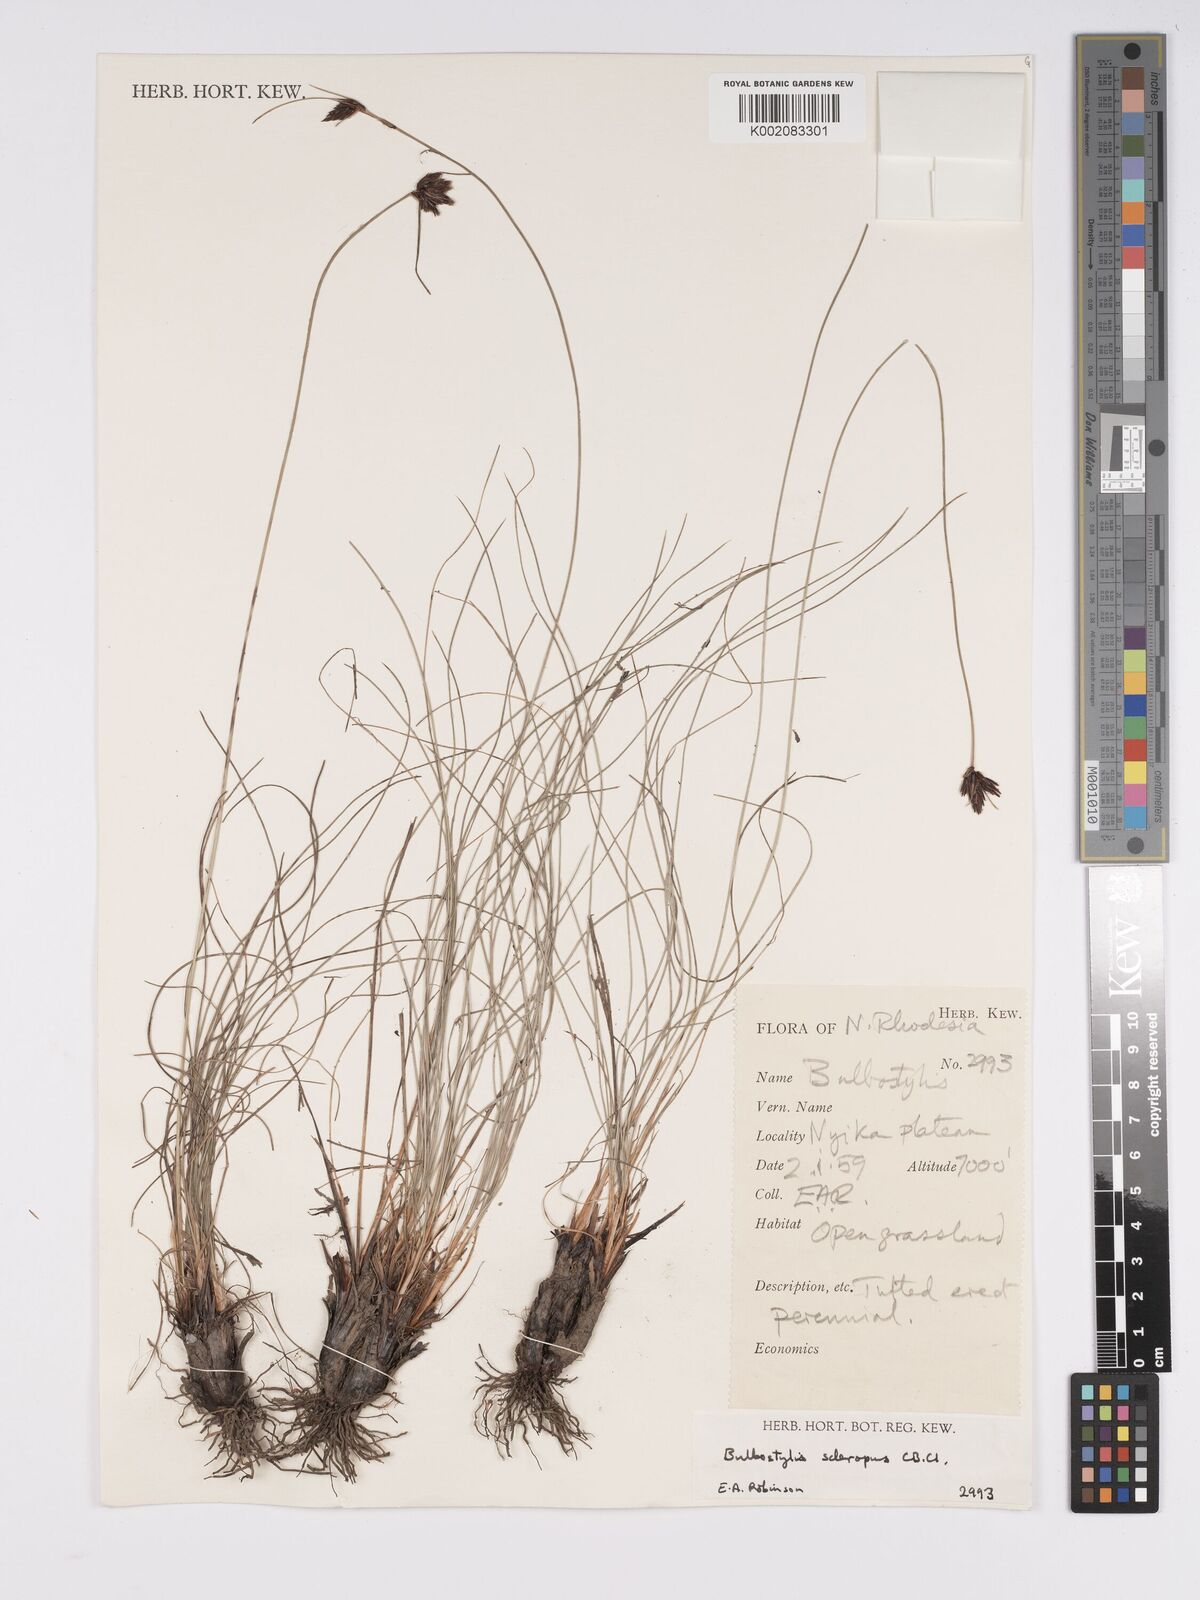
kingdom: Plantae
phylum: Tracheophyta
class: Liliopsida
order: Poales
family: Cyperaceae
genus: Bulbostylis
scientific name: Bulbostylis schoenoides
